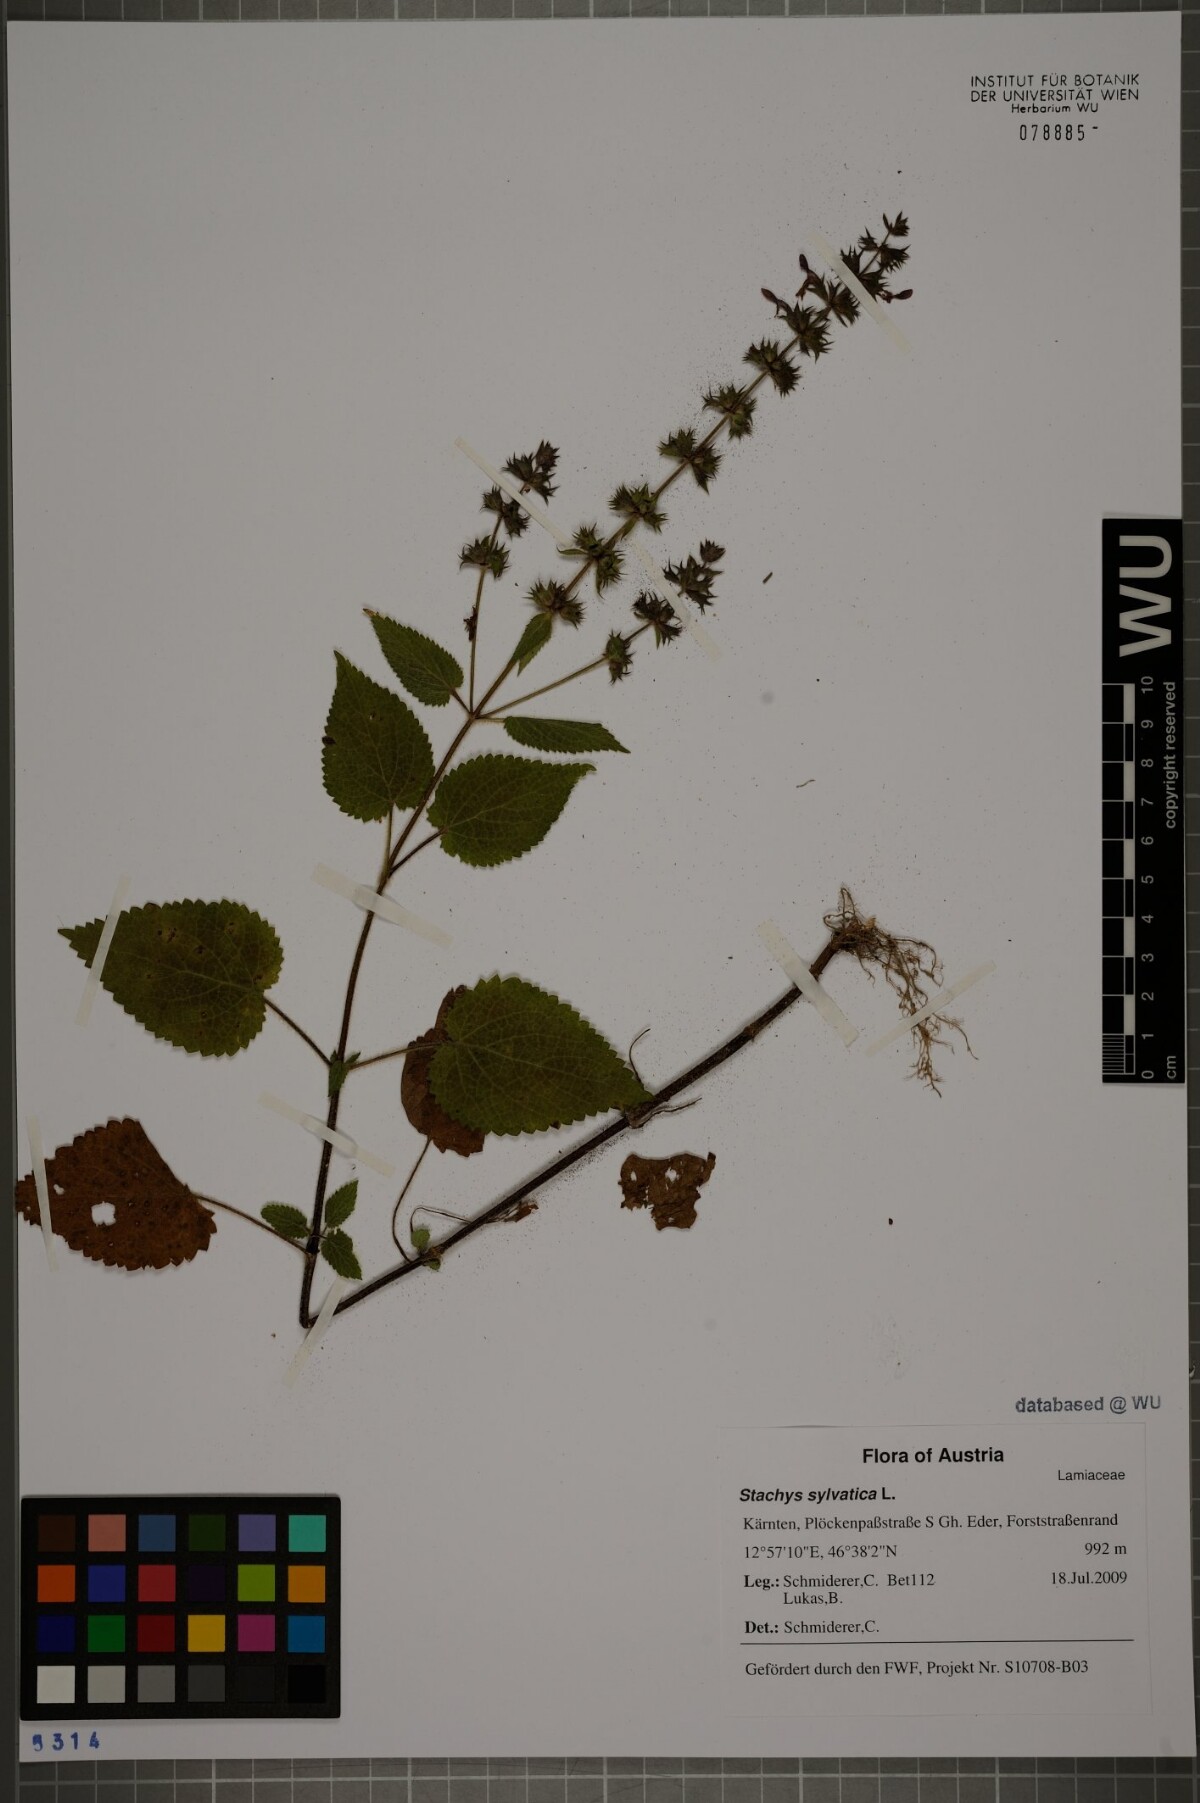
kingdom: Plantae
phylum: Tracheophyta
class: Magnoliopsida
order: Lamiales
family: Lamiaceae
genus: Stachys
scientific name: Stachys sylvatica
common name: Hedge woundwort
